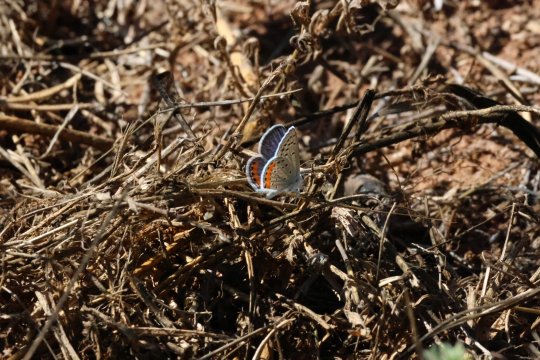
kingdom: Animalia
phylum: Arthropoda
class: Insecta
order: Lepidoptera
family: Lycaenidae
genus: Euphilotes
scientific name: Euphilotes rita
